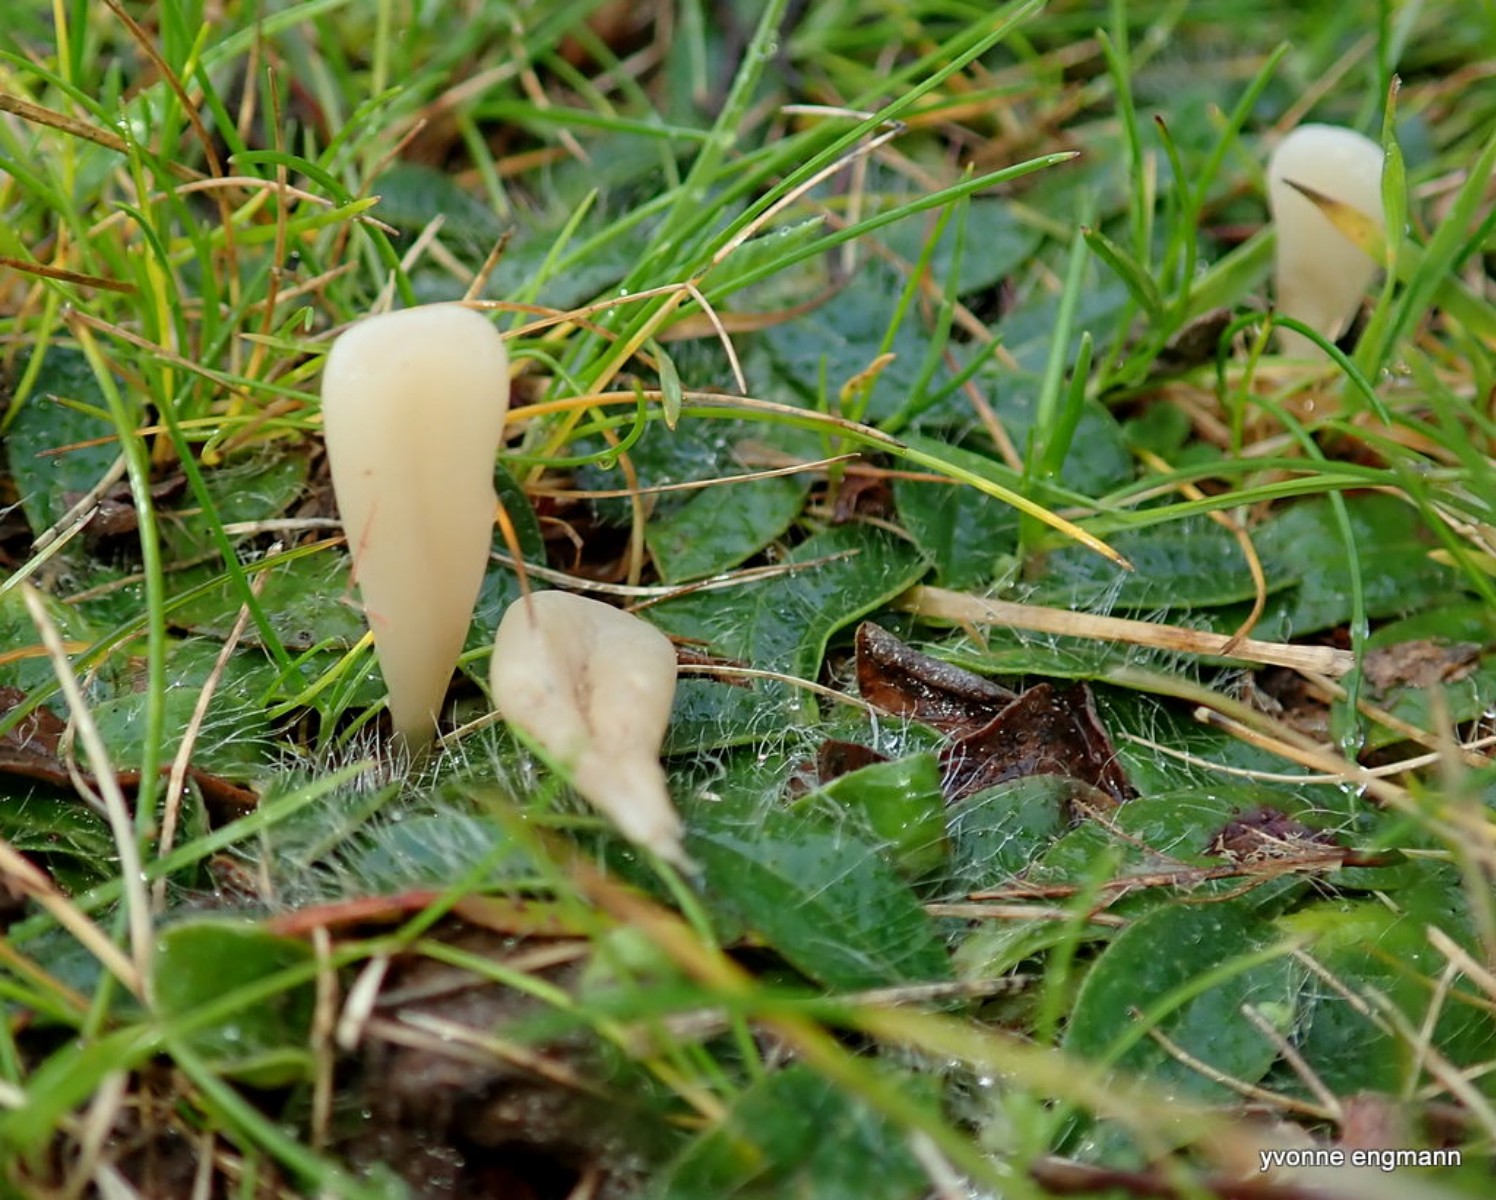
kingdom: Fungi
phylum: Basidiomycota
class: Agaricomycetes
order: Agaricales
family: Clavariaceae
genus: Clavaria
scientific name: Clavaria tenuipes
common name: isabellafarvet køllesvamp
